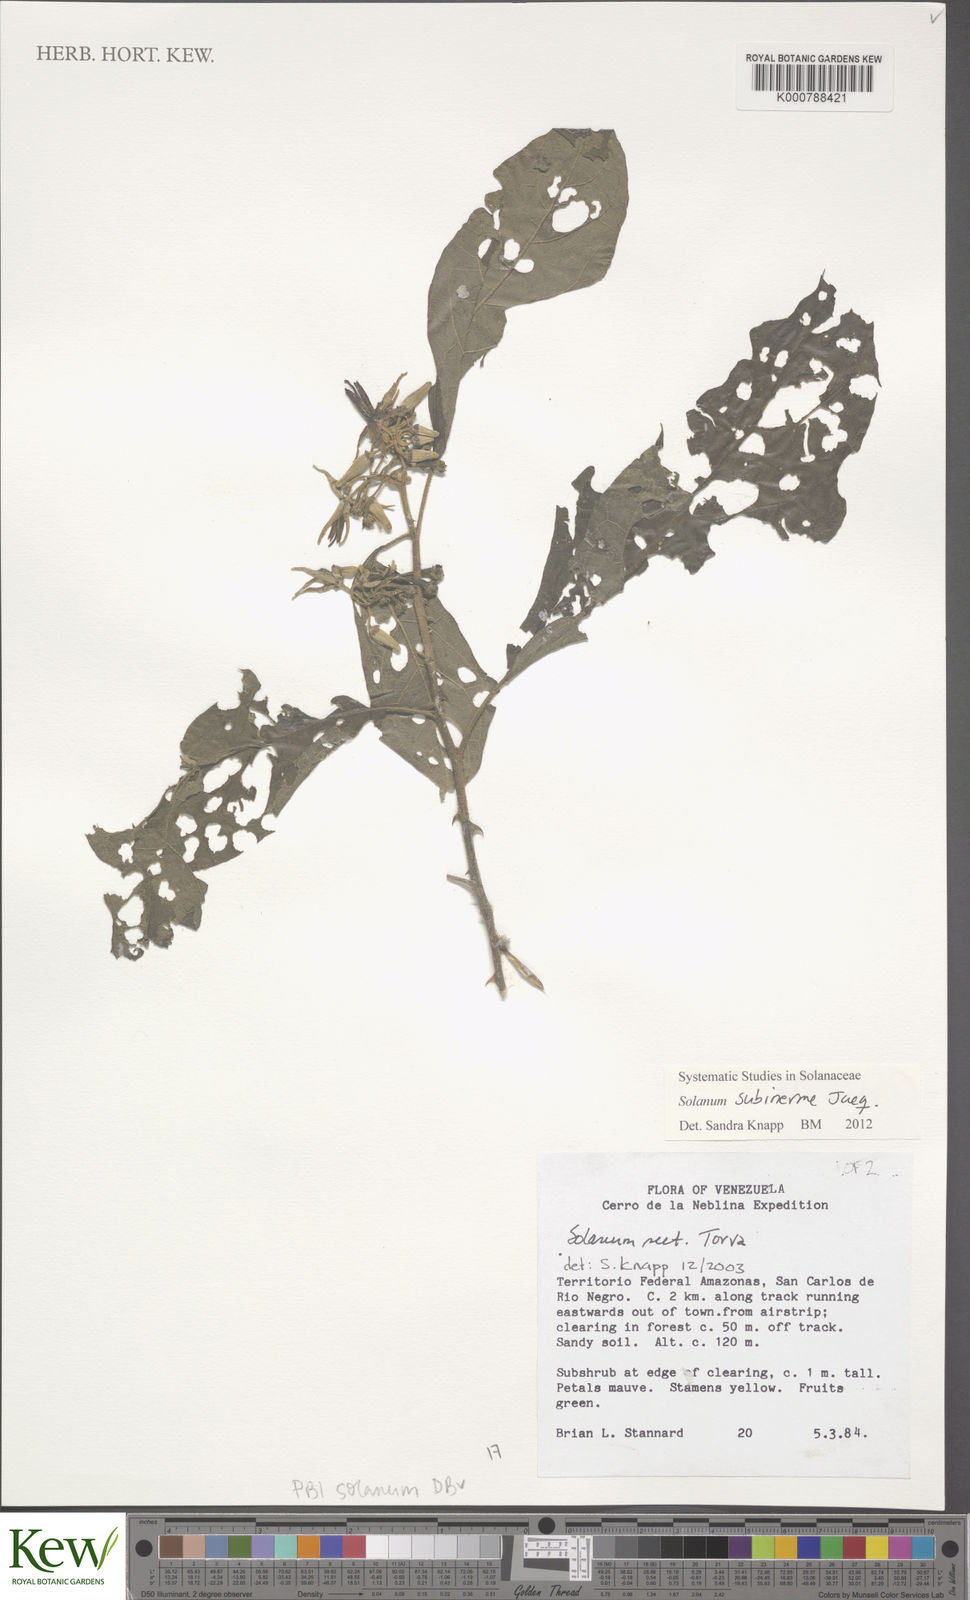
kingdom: Plantae
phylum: Tracheophyta
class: Magnoliopsida
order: Solanales
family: Solanaceae
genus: Solanum
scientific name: Solanum subinerme
